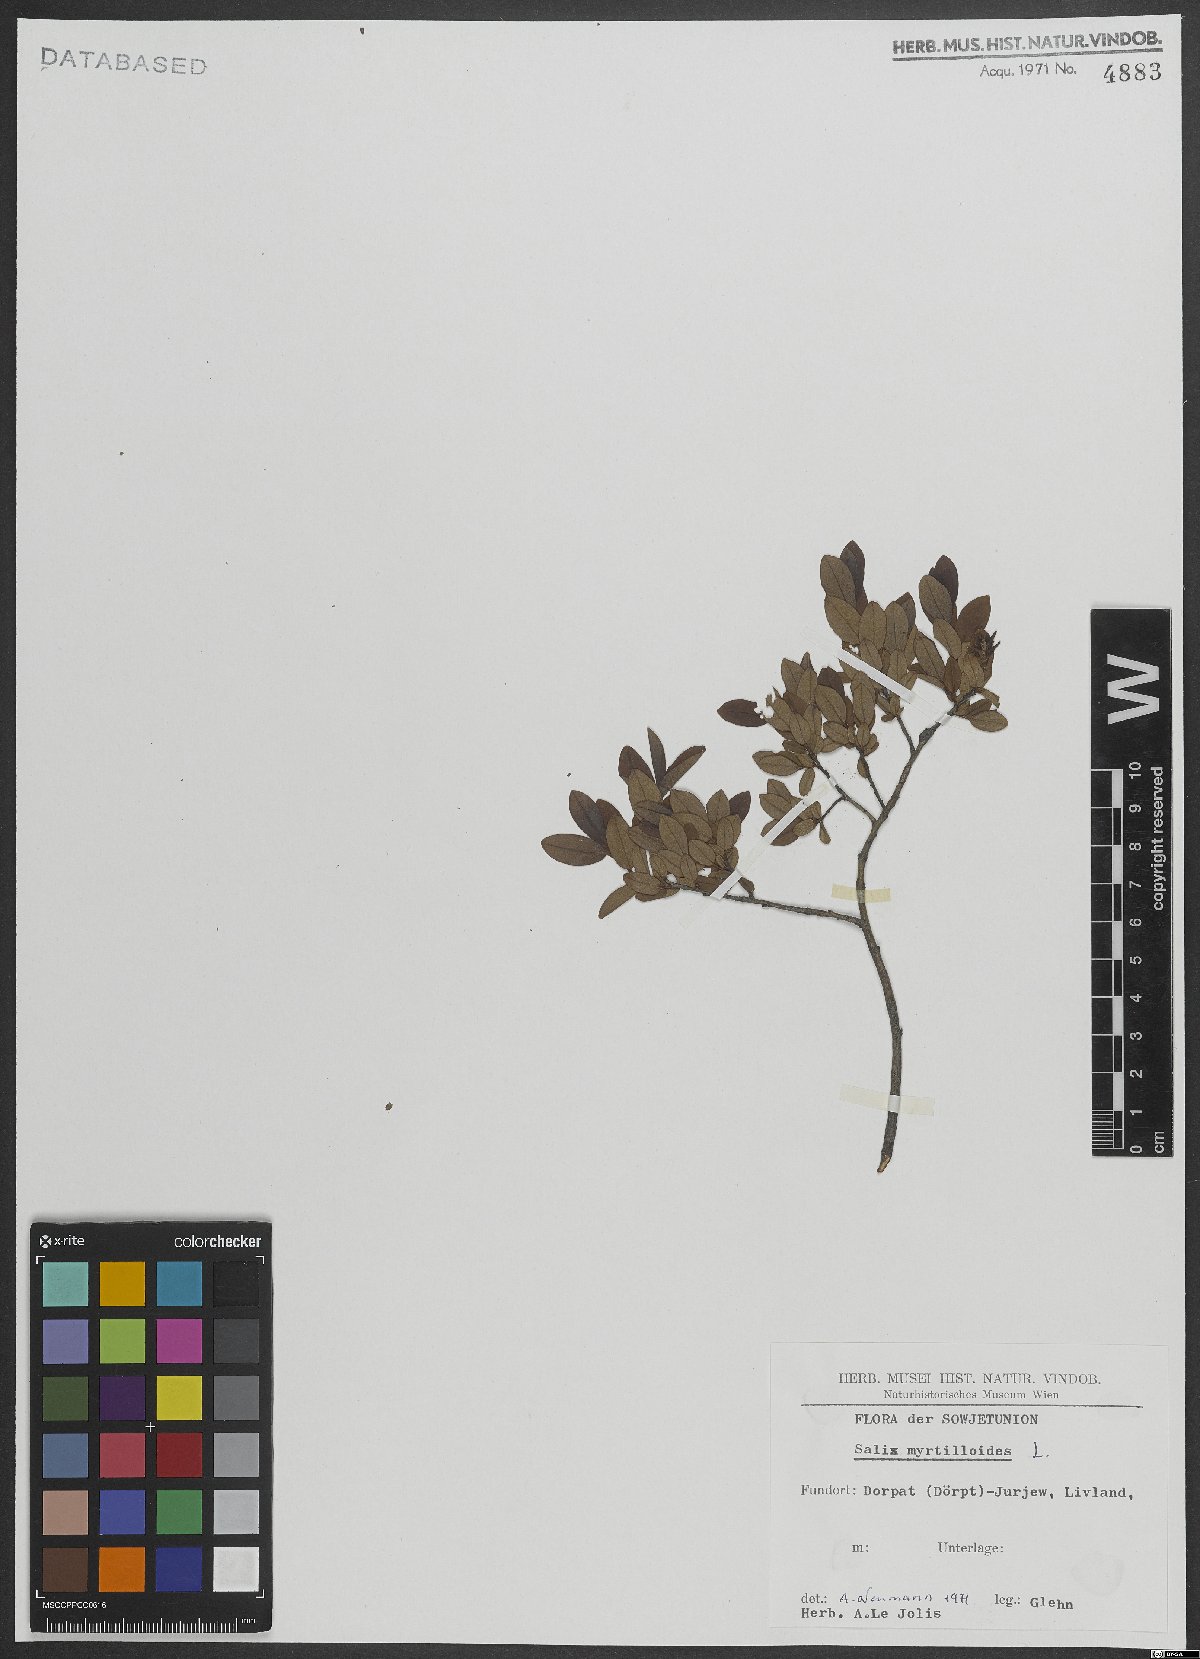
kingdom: Plantae
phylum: Tracheophyta
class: Magnoliopsida
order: Malpighiales
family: Salicaceae
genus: Salix
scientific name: Salix myrtilloides
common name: Myrtle-leaved willow
